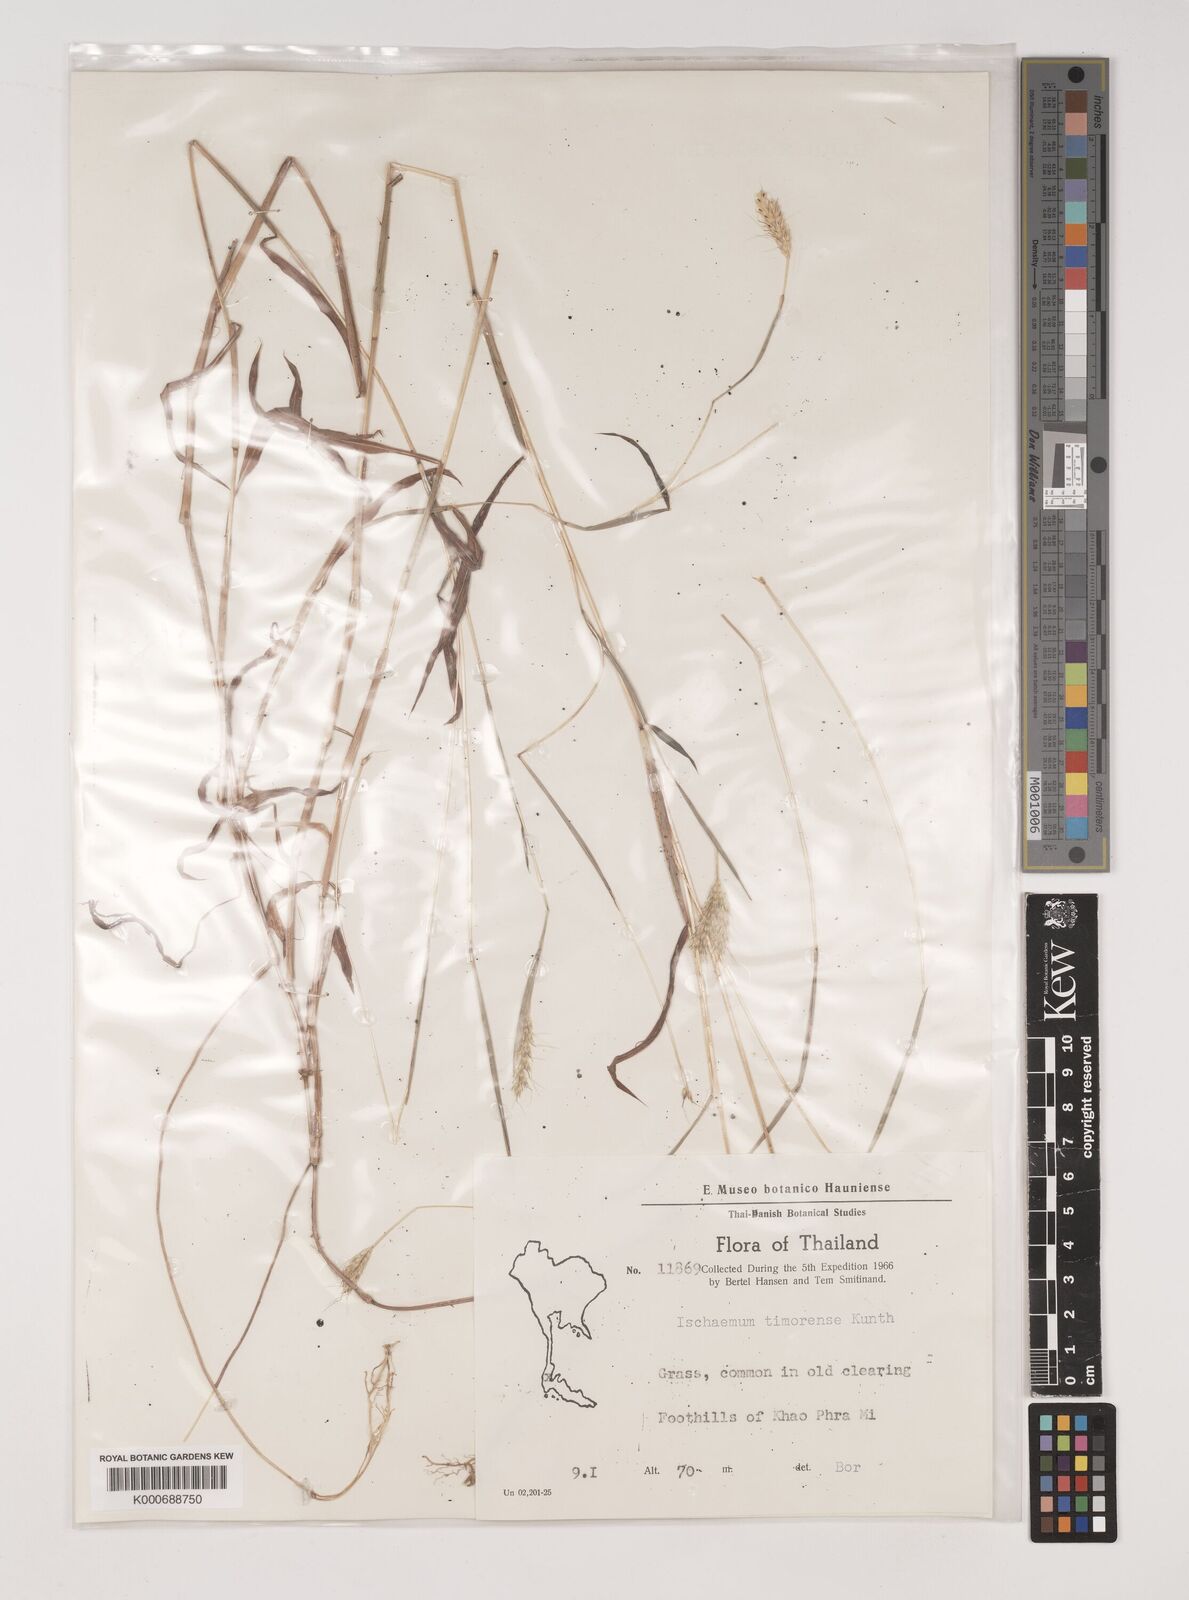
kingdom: Plantae
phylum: Tracheophyta
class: Liliopsida
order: Poales
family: Poaceae
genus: Ischaemum
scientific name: Ischaemum timorense
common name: Stalkleaf murainagrass
